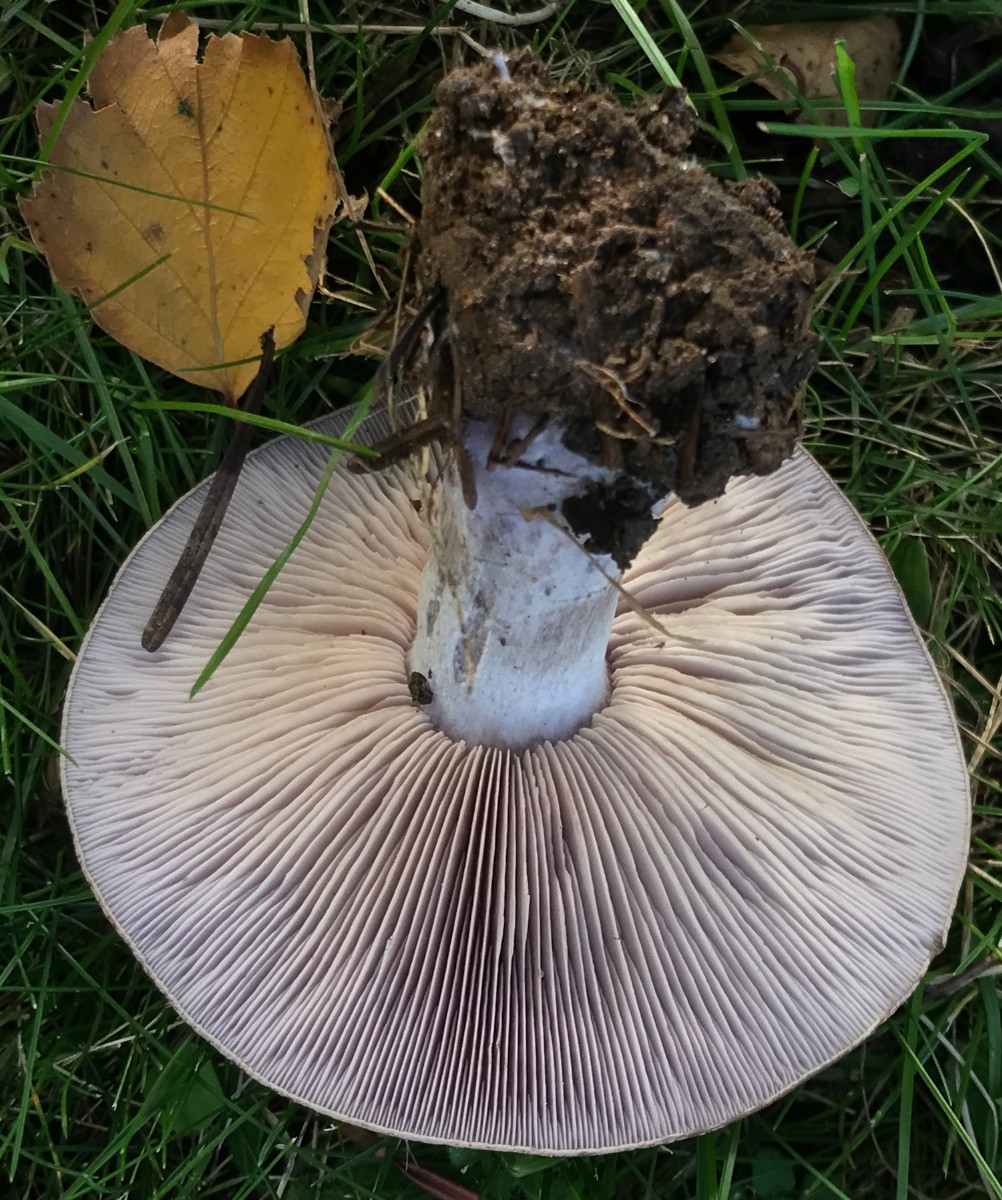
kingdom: Fungi
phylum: Basidiomycota
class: Agaricomycetes
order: Agaricales
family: Tricholomataceae
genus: Lepista
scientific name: Lepista nuda
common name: violet hekseringshat
